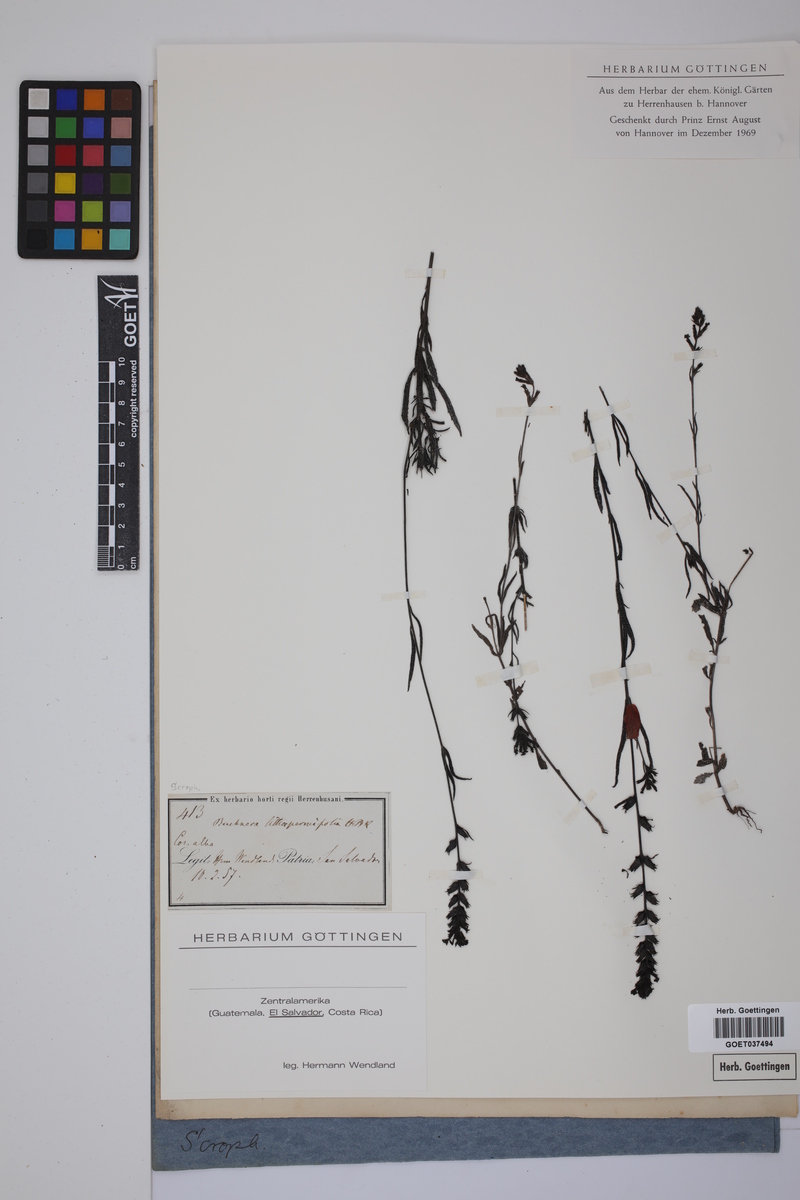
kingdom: Plantae
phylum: Tracheophyta
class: Magnoliopsida
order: Lamiales
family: Orobanchaceae
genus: Buchnera
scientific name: Buchnera ternifolia
